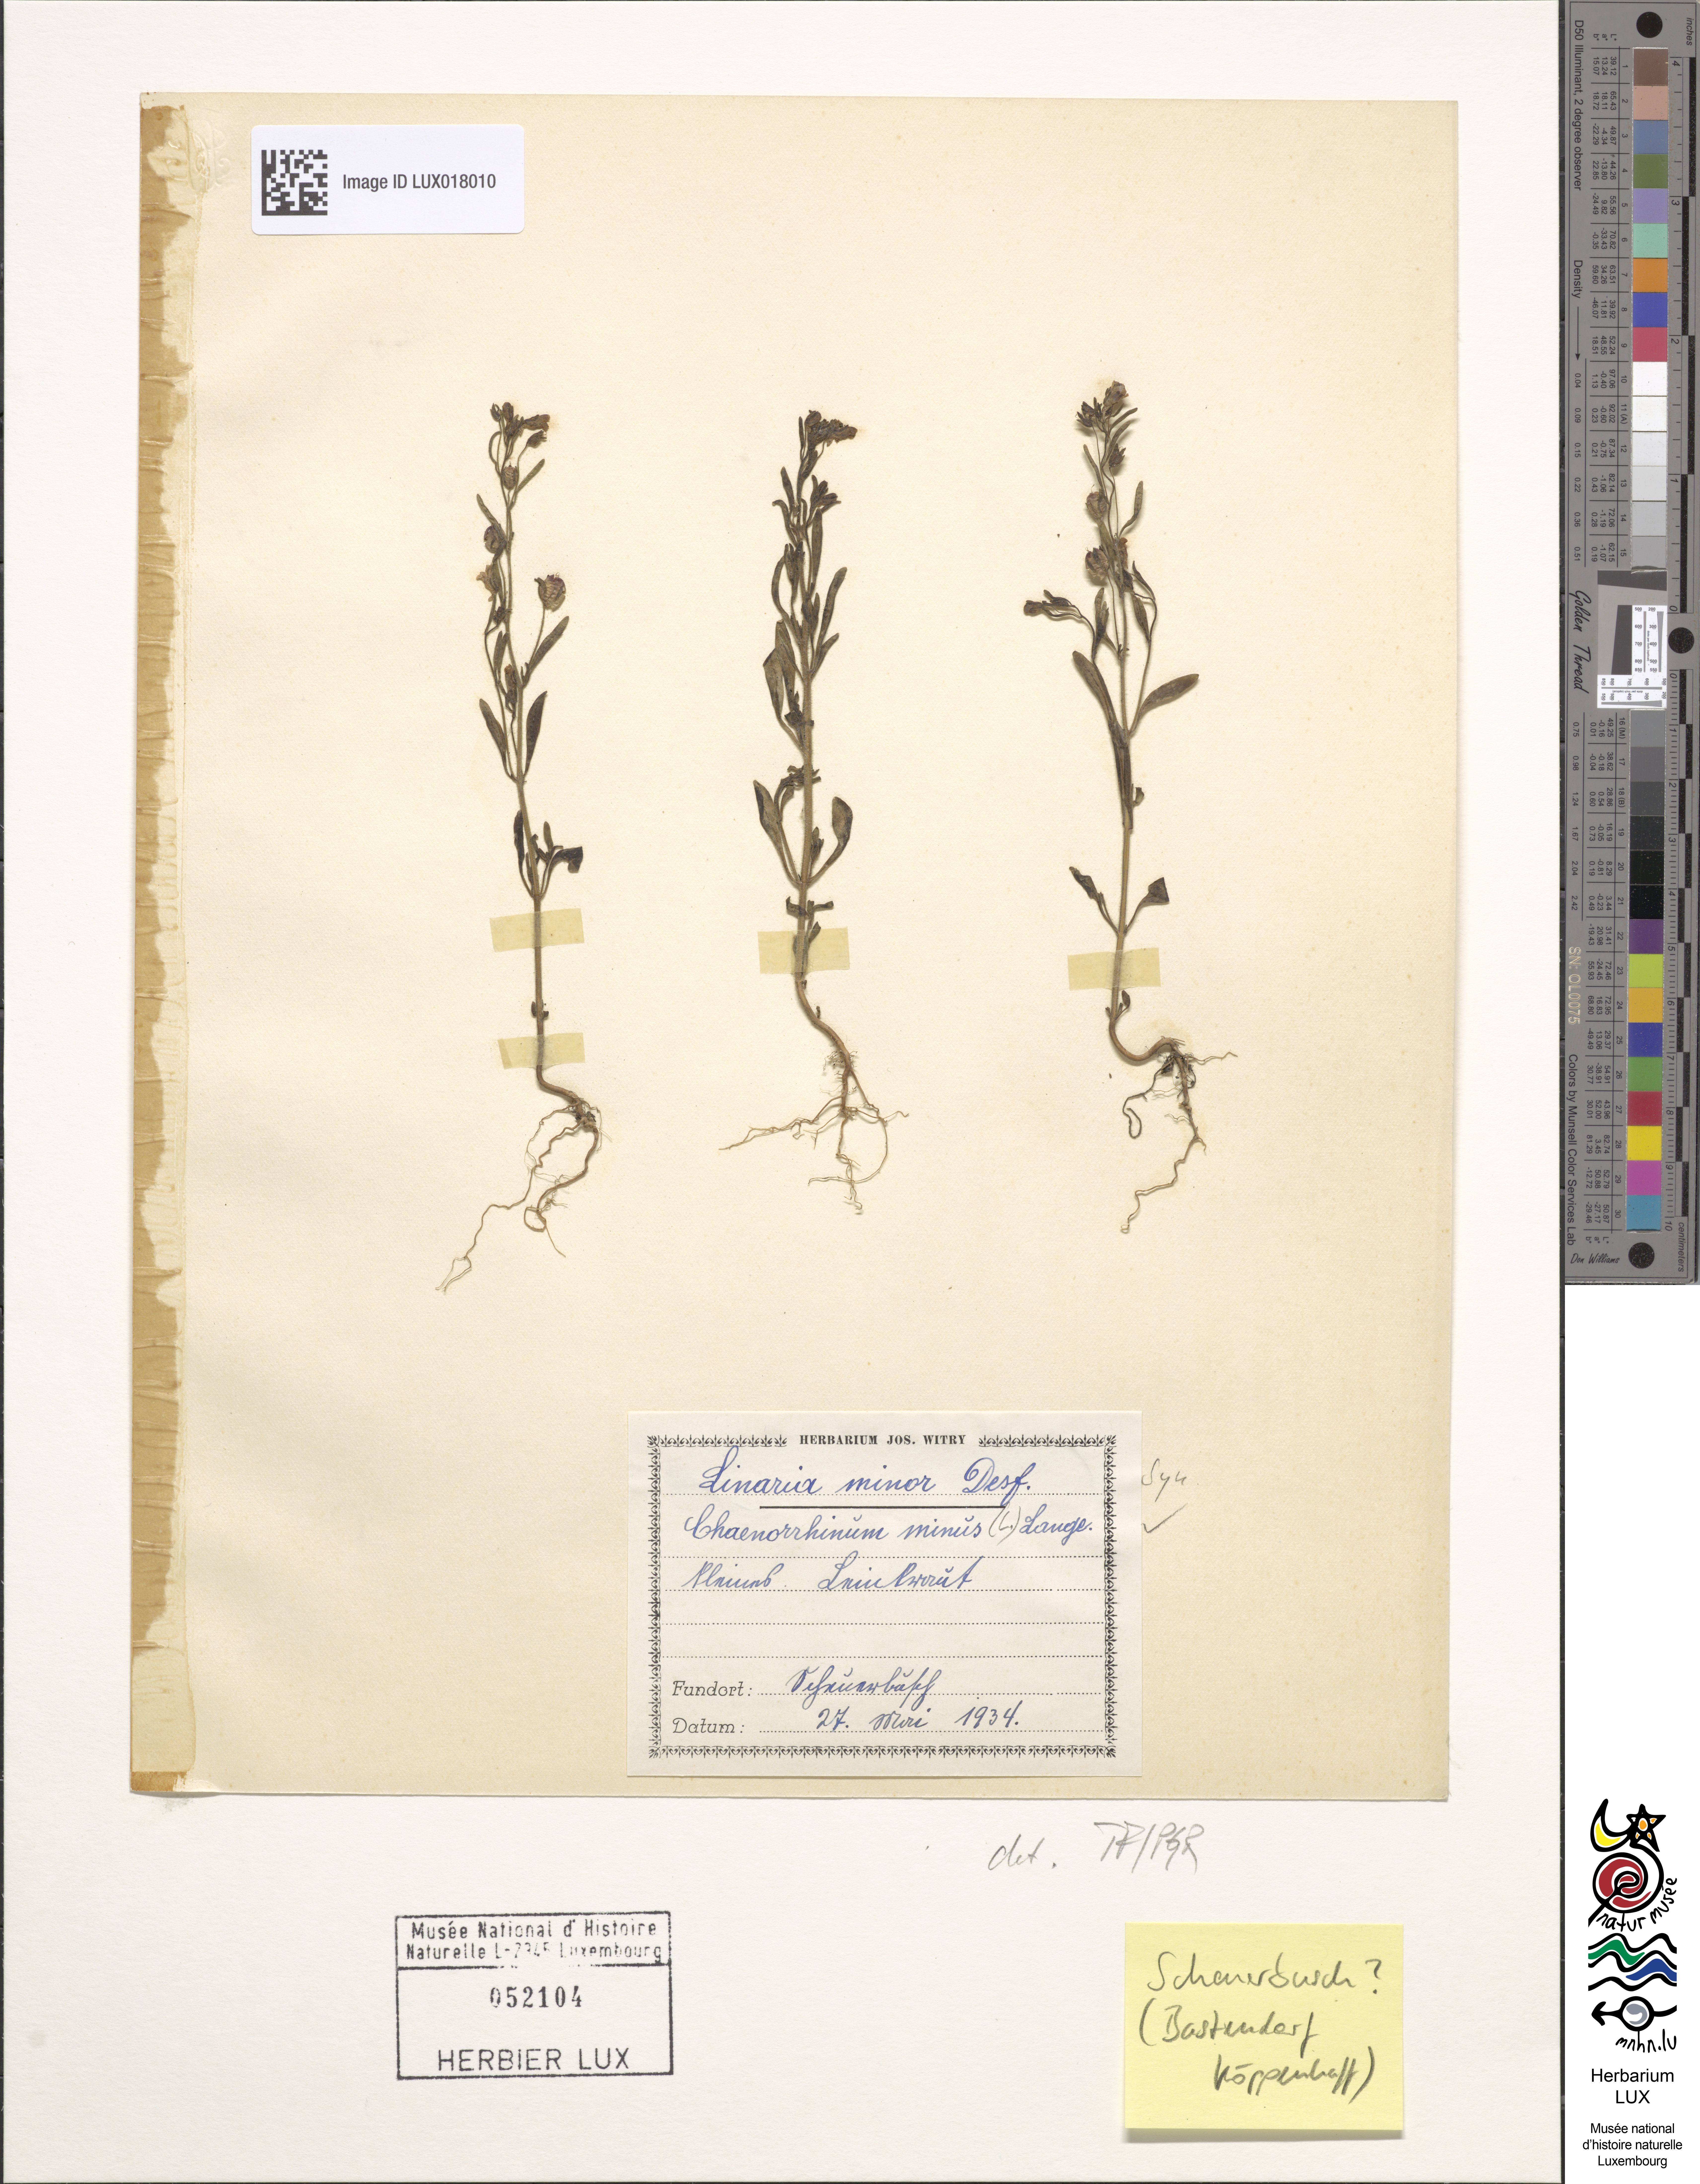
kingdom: Plantae
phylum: Tracheophyta
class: Magnoliopsida
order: Lamiales
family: Plantaginaceae
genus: Chaenorhinum
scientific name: Chaenorhinum minus
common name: Dwarf snapdragon
